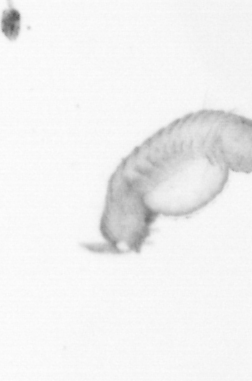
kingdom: Animalia
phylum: Annelida
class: Polychaeta
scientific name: Polychaeta
